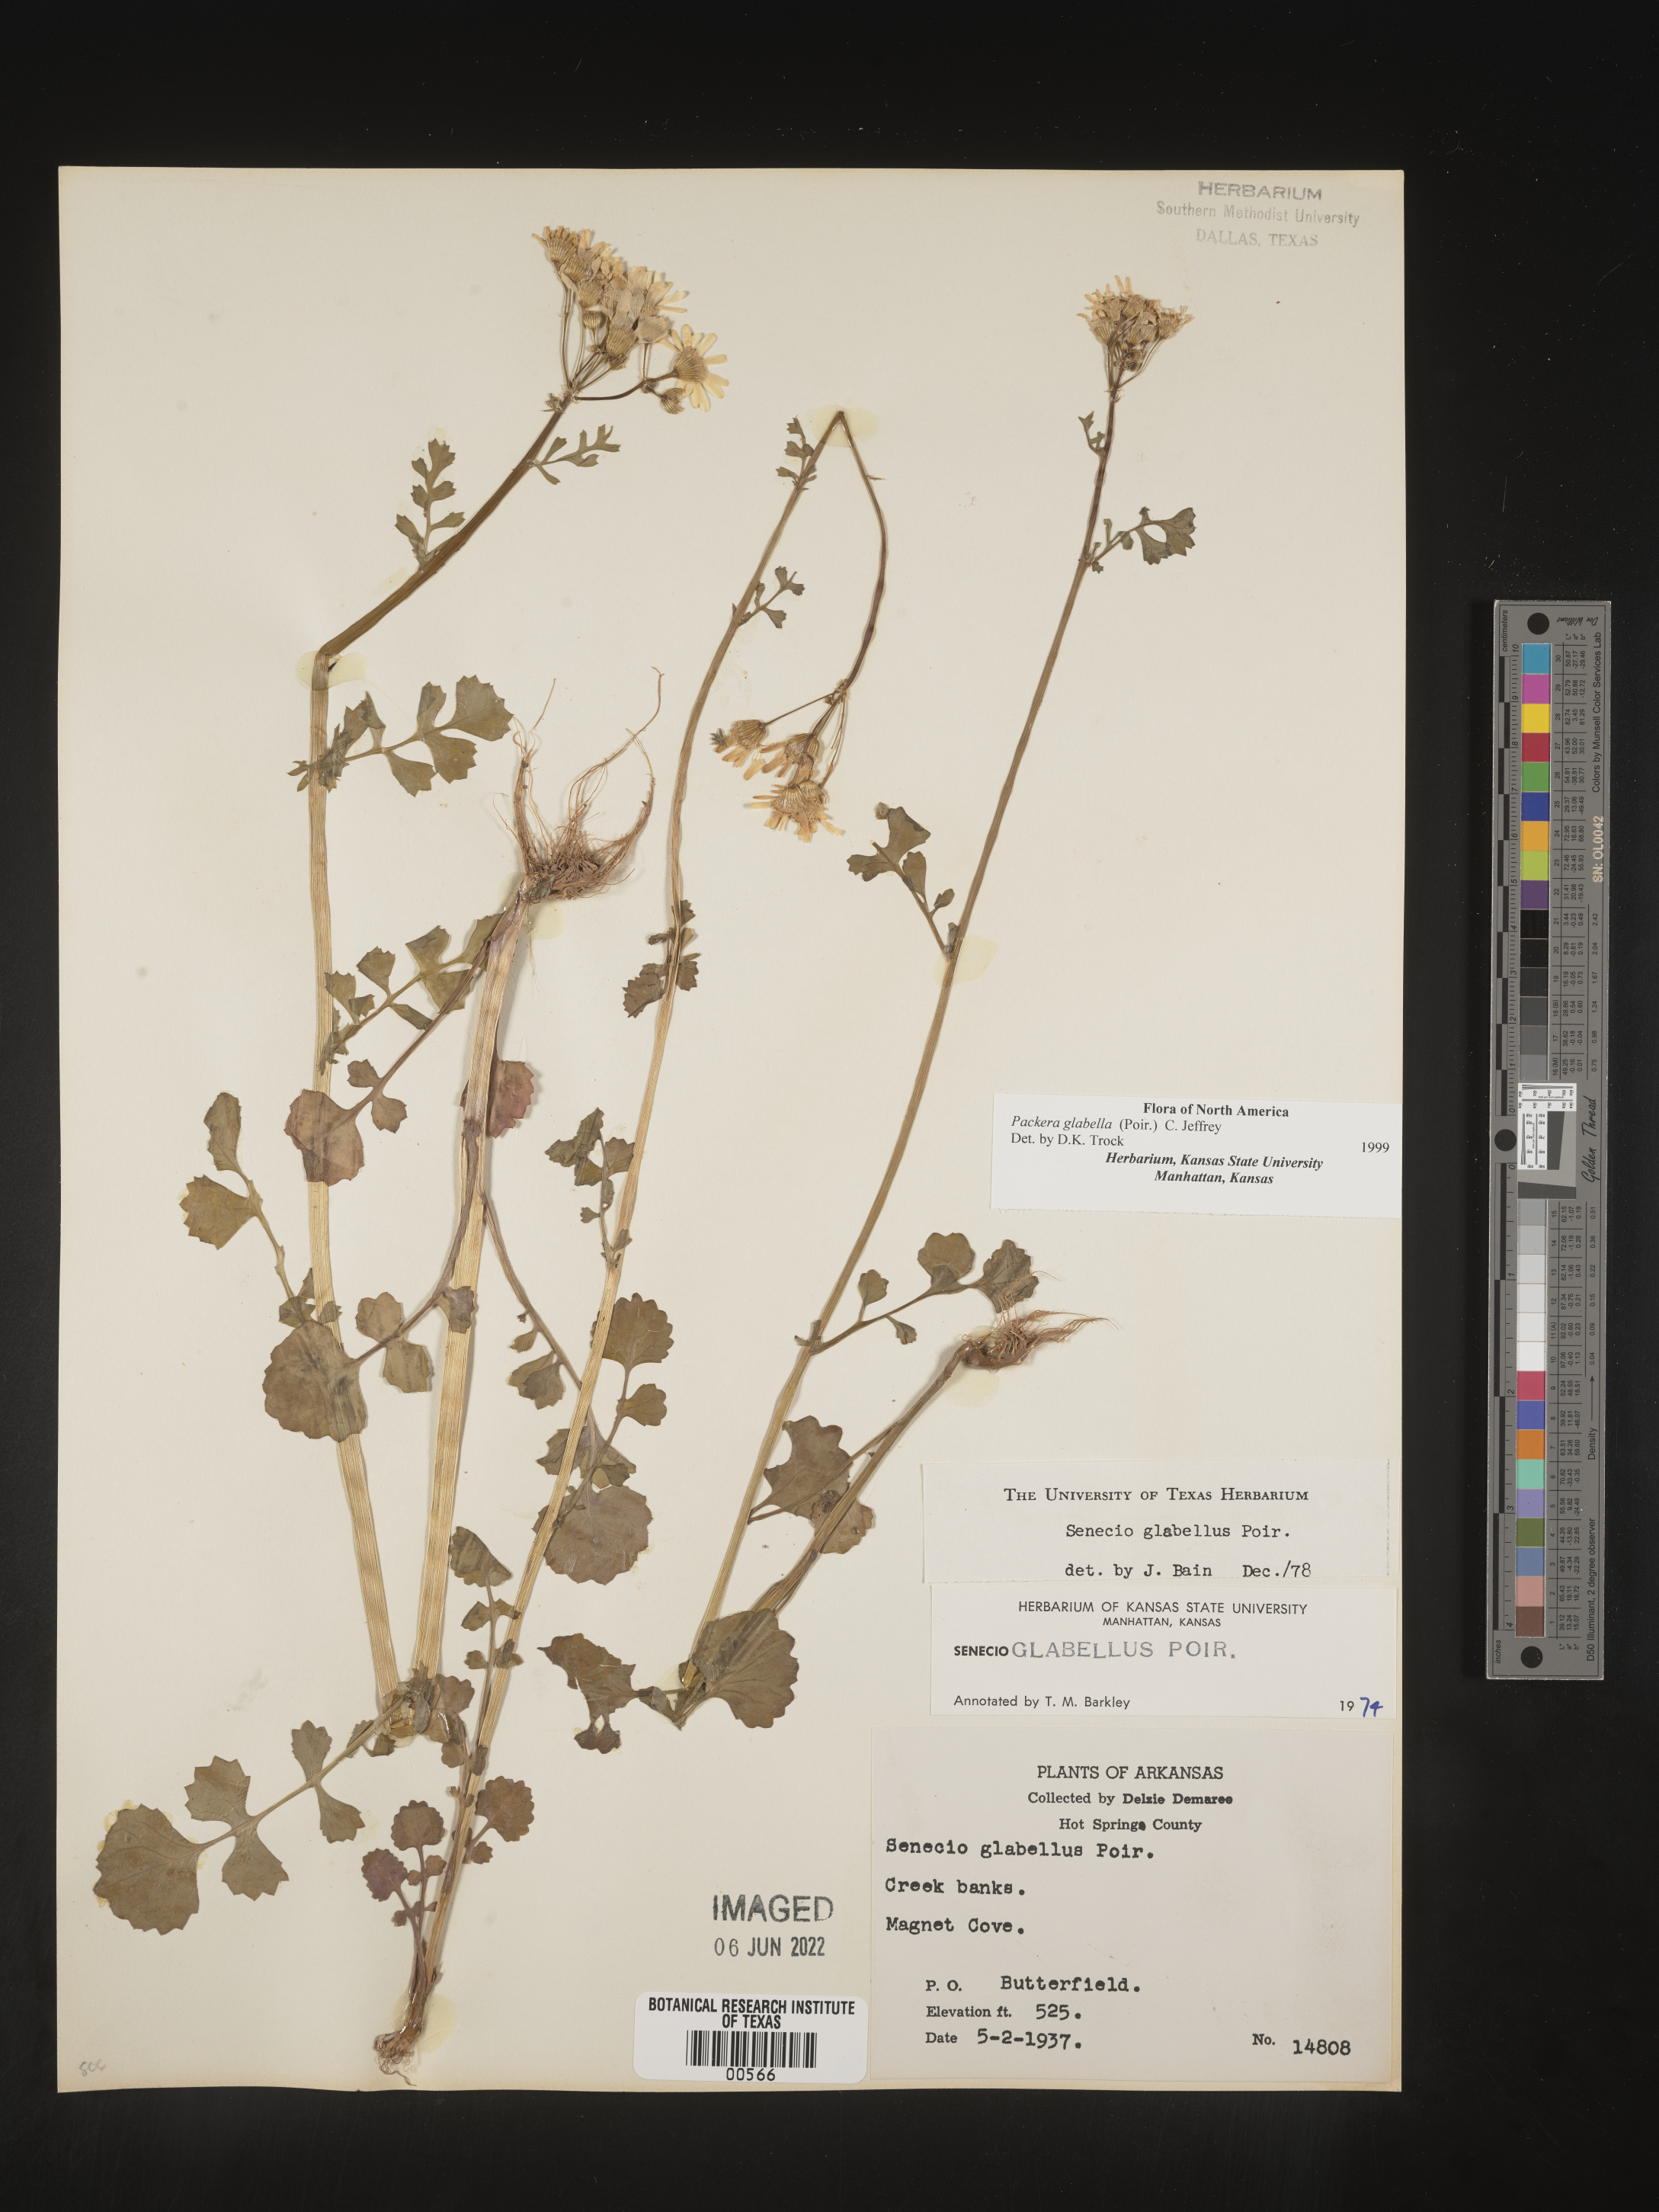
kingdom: Plantae
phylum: Tracheophyta
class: Magnoliopsida
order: Asterales
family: Asteraceae
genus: Packera
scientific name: Packera glabella
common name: Butterweed
